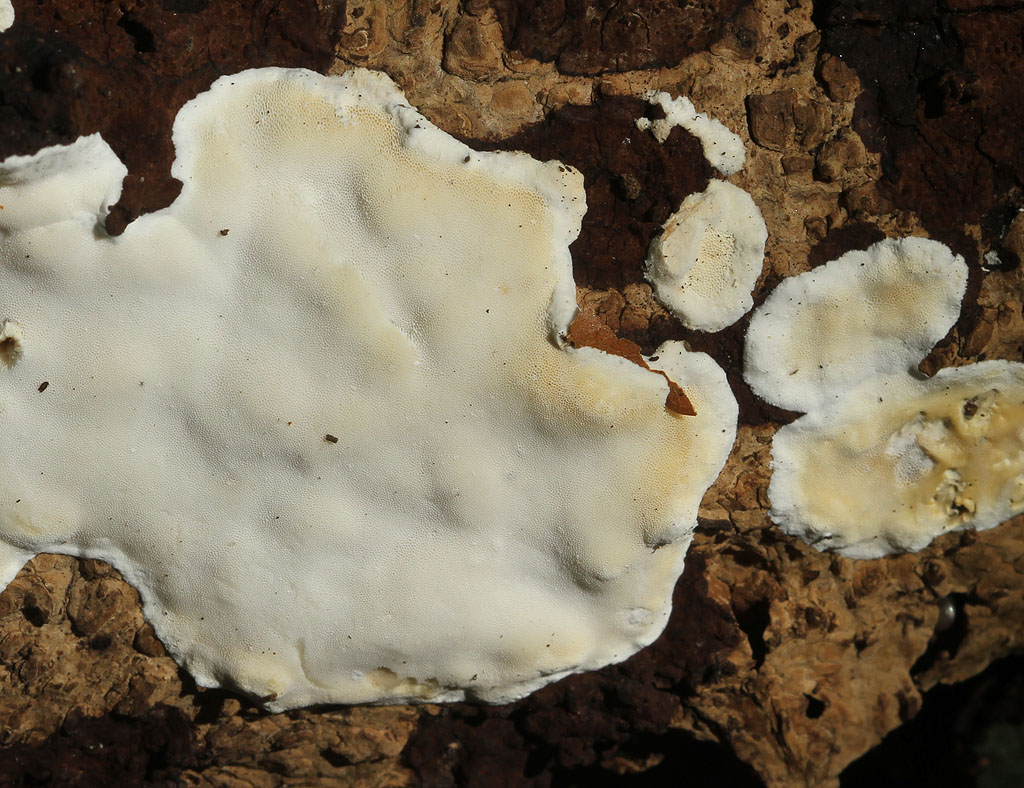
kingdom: Fungi
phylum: Basidiomycota
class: Agaricomycetes
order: Polyporales
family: Incrustoporiaceae
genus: Skeletocutis
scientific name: Skeletocutis nemoralis
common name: stor krystalporesvamp
